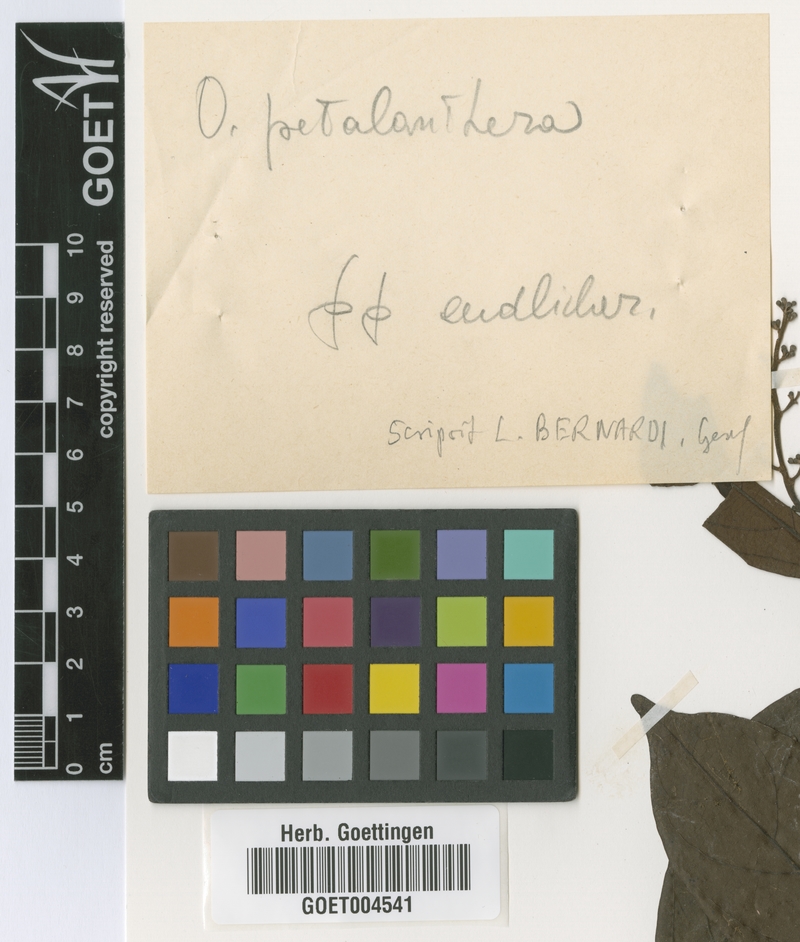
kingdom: Plantae
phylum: Tracheophyta
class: Magnoliopsida
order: Laurales
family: Lauraceae
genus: Ocotea
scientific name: Ocotea petalanthera
